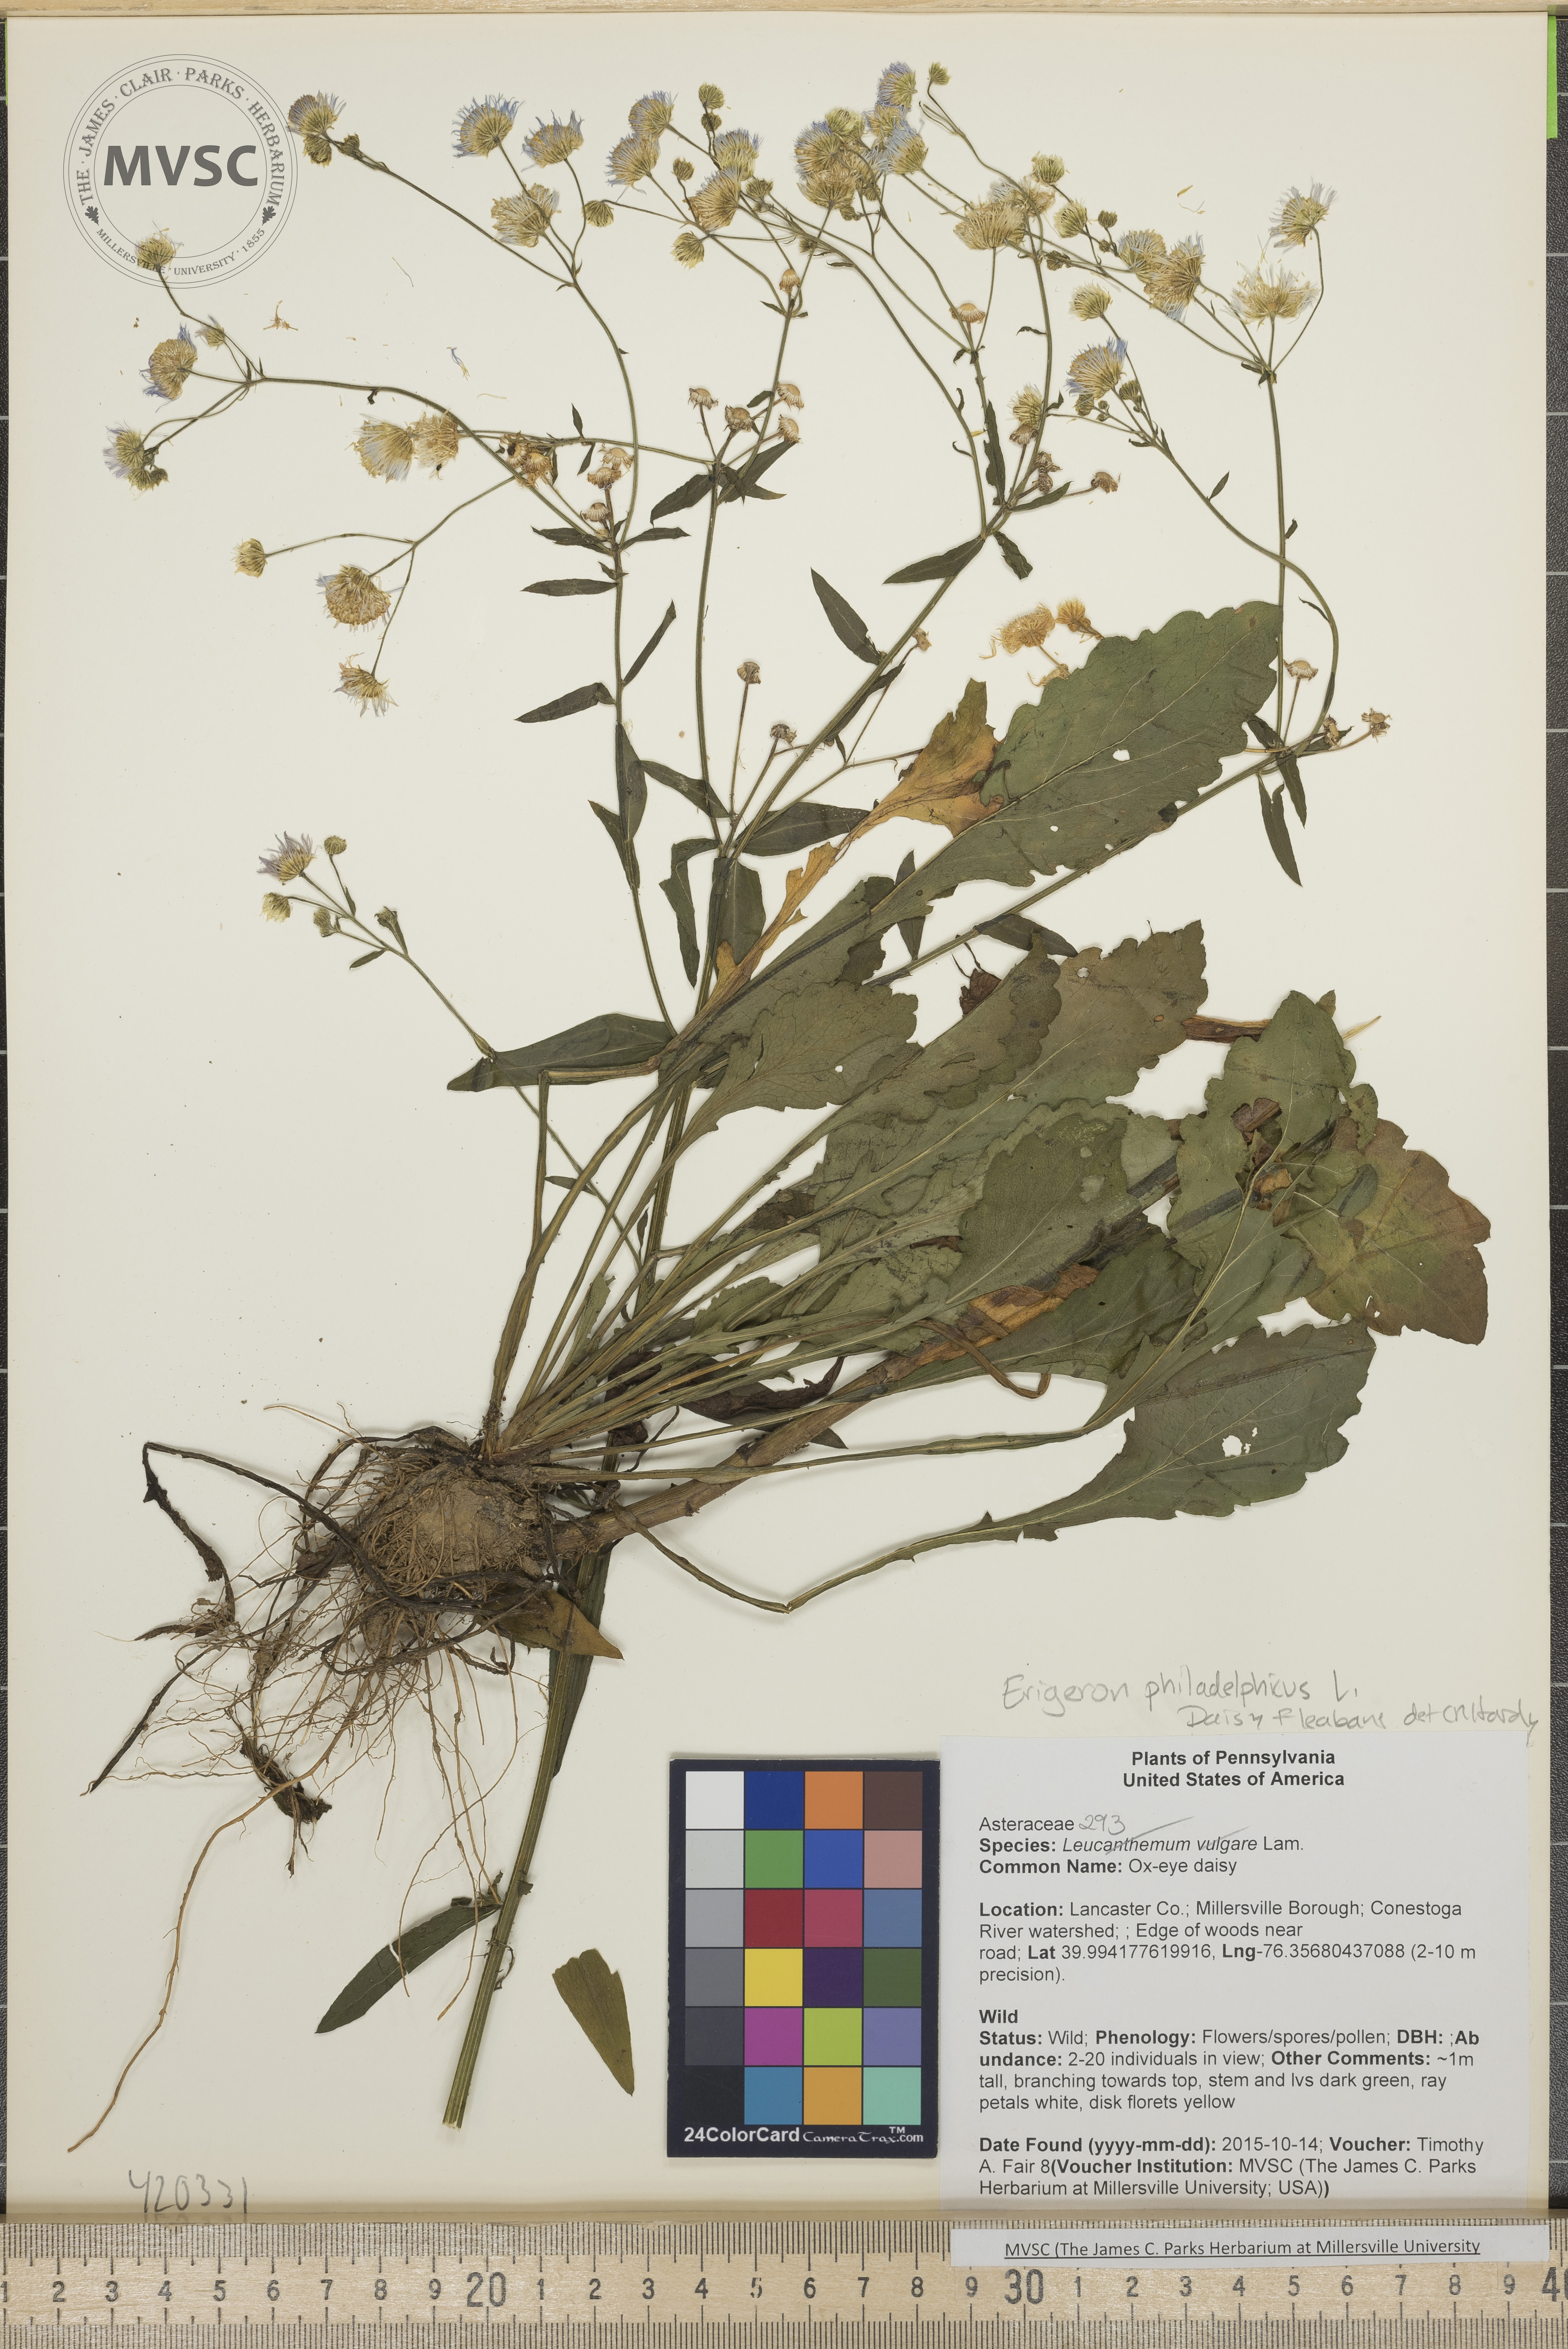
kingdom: Plantae
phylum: Tracheophyta
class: Magnoliopsida
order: Asterales
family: Asteraceae
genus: Erigeron
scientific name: Erigeron philadelphicus
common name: Daisy Fleabane
